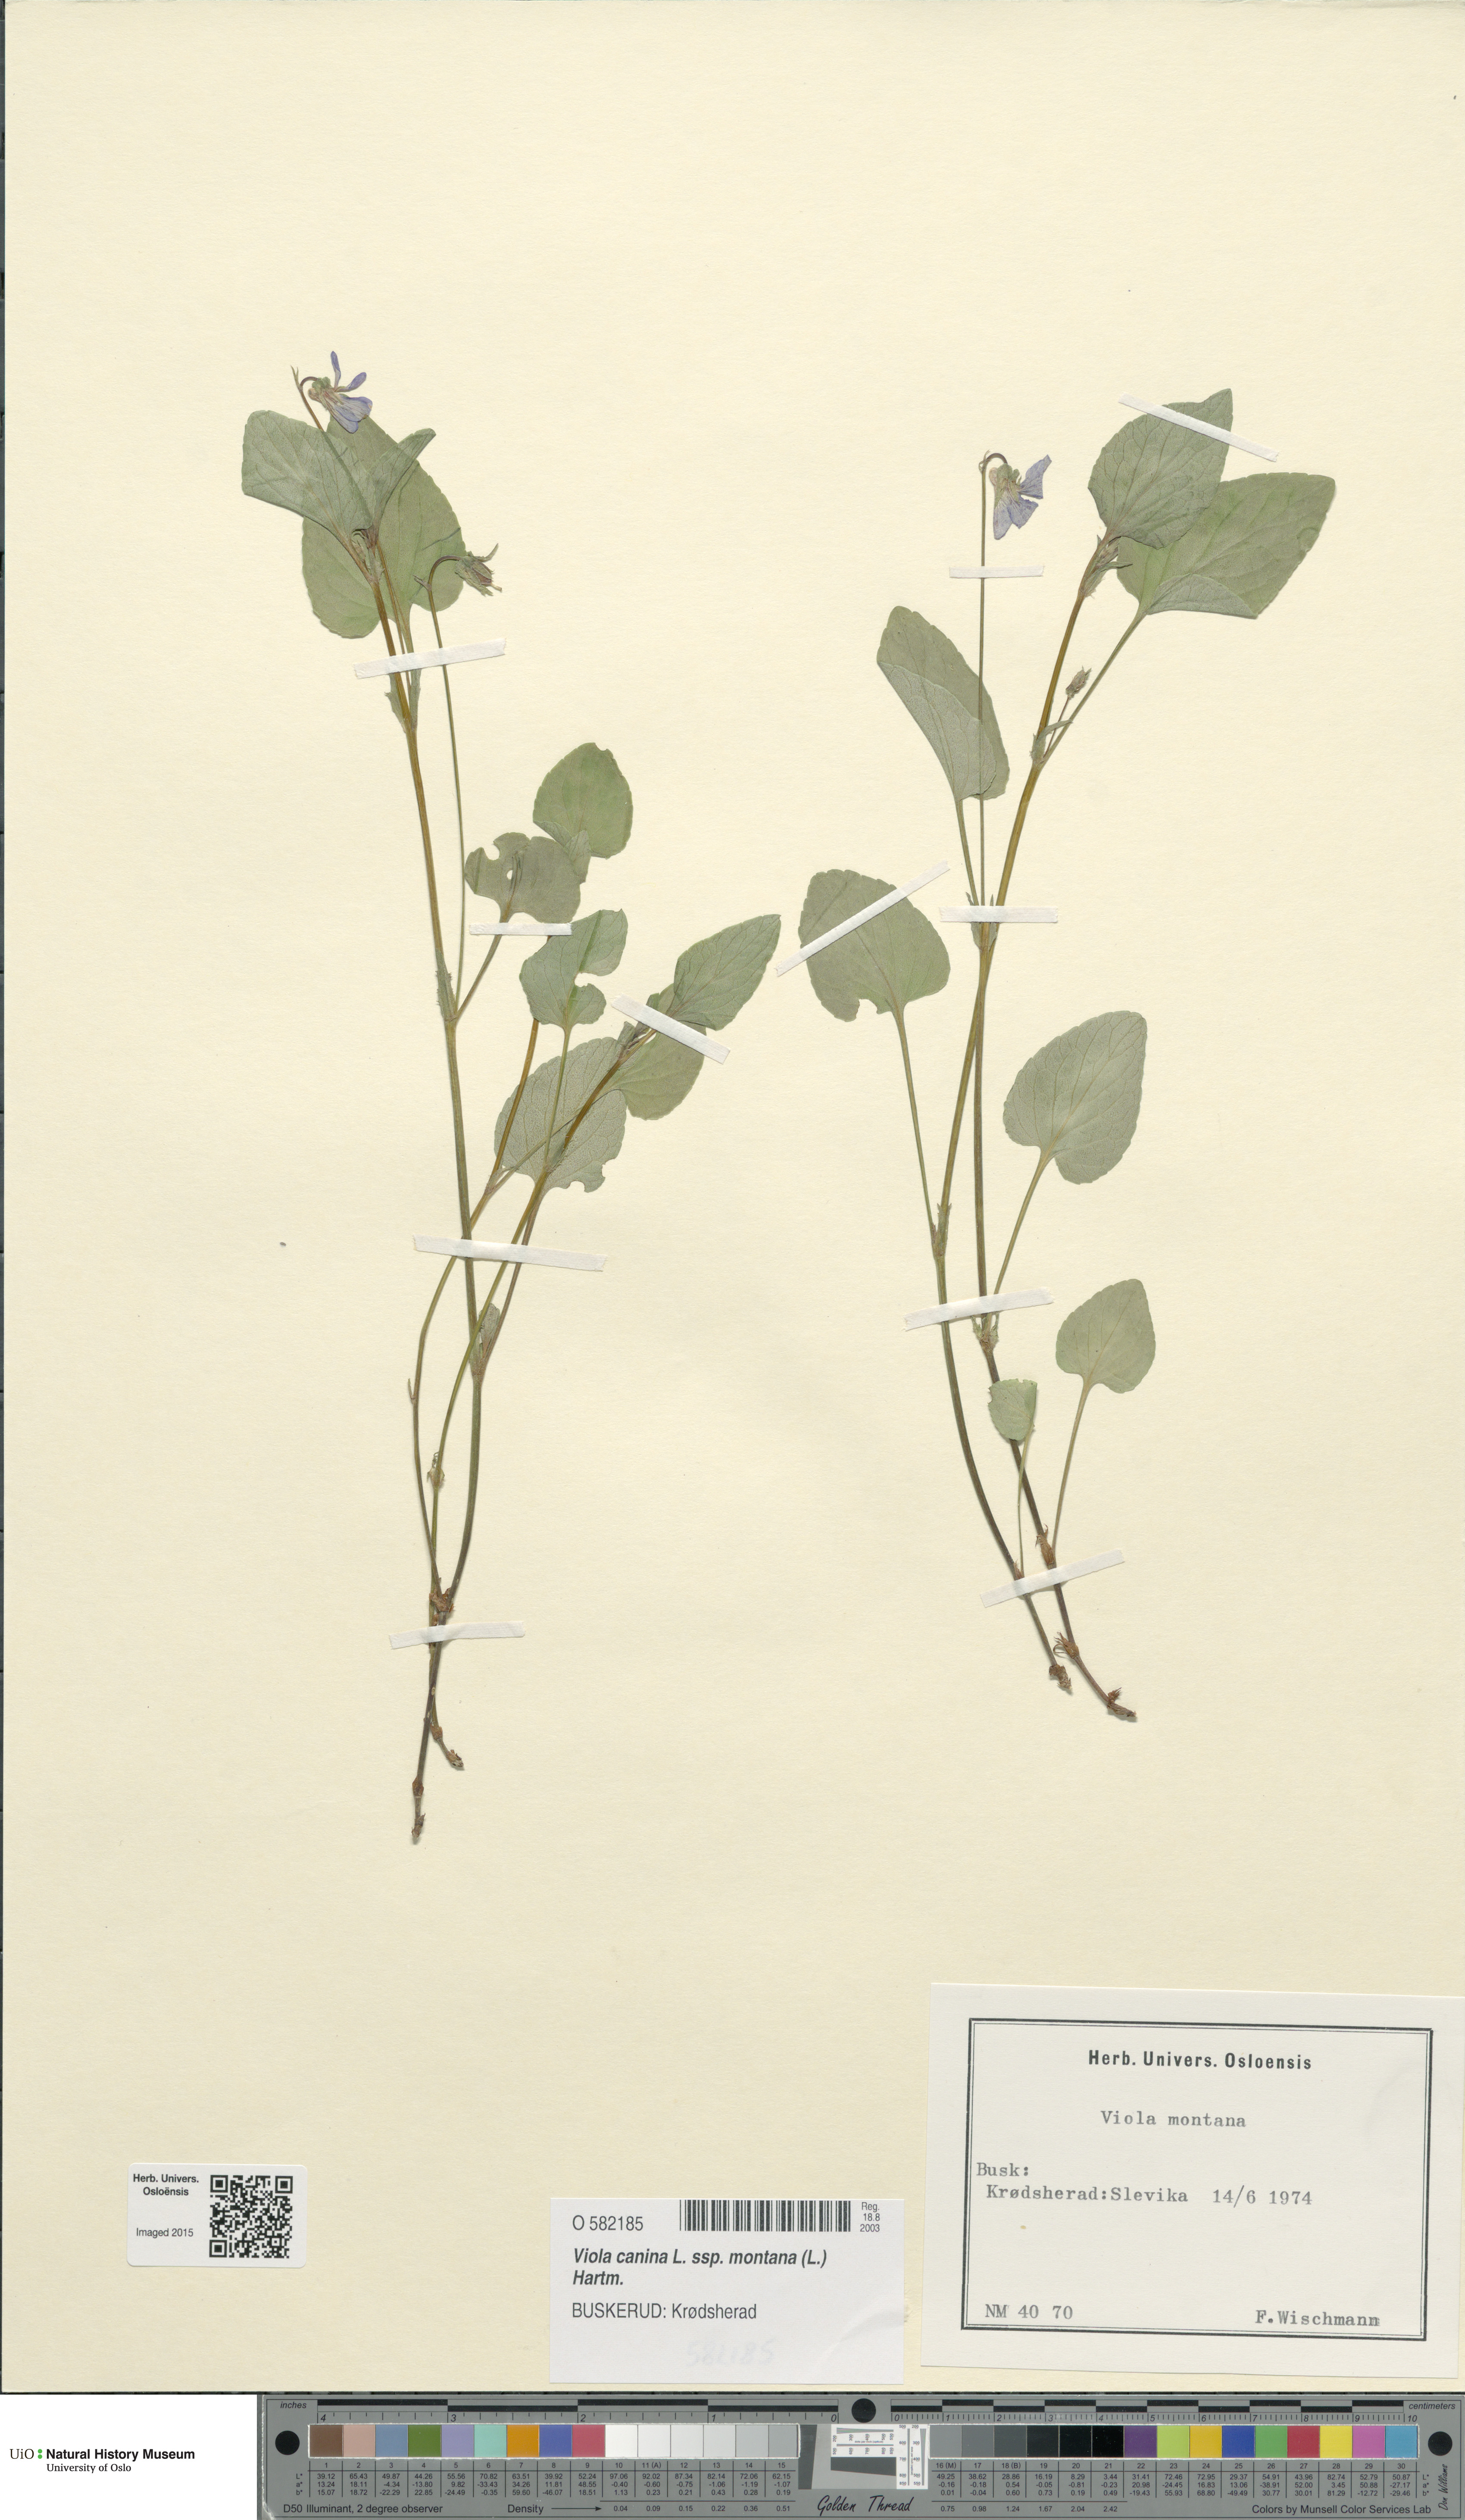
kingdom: Plantae
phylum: Tracheophyta
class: Magnoliopsida
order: Malpighiales
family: Violaceae
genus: Viola
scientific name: Viola ruppii
